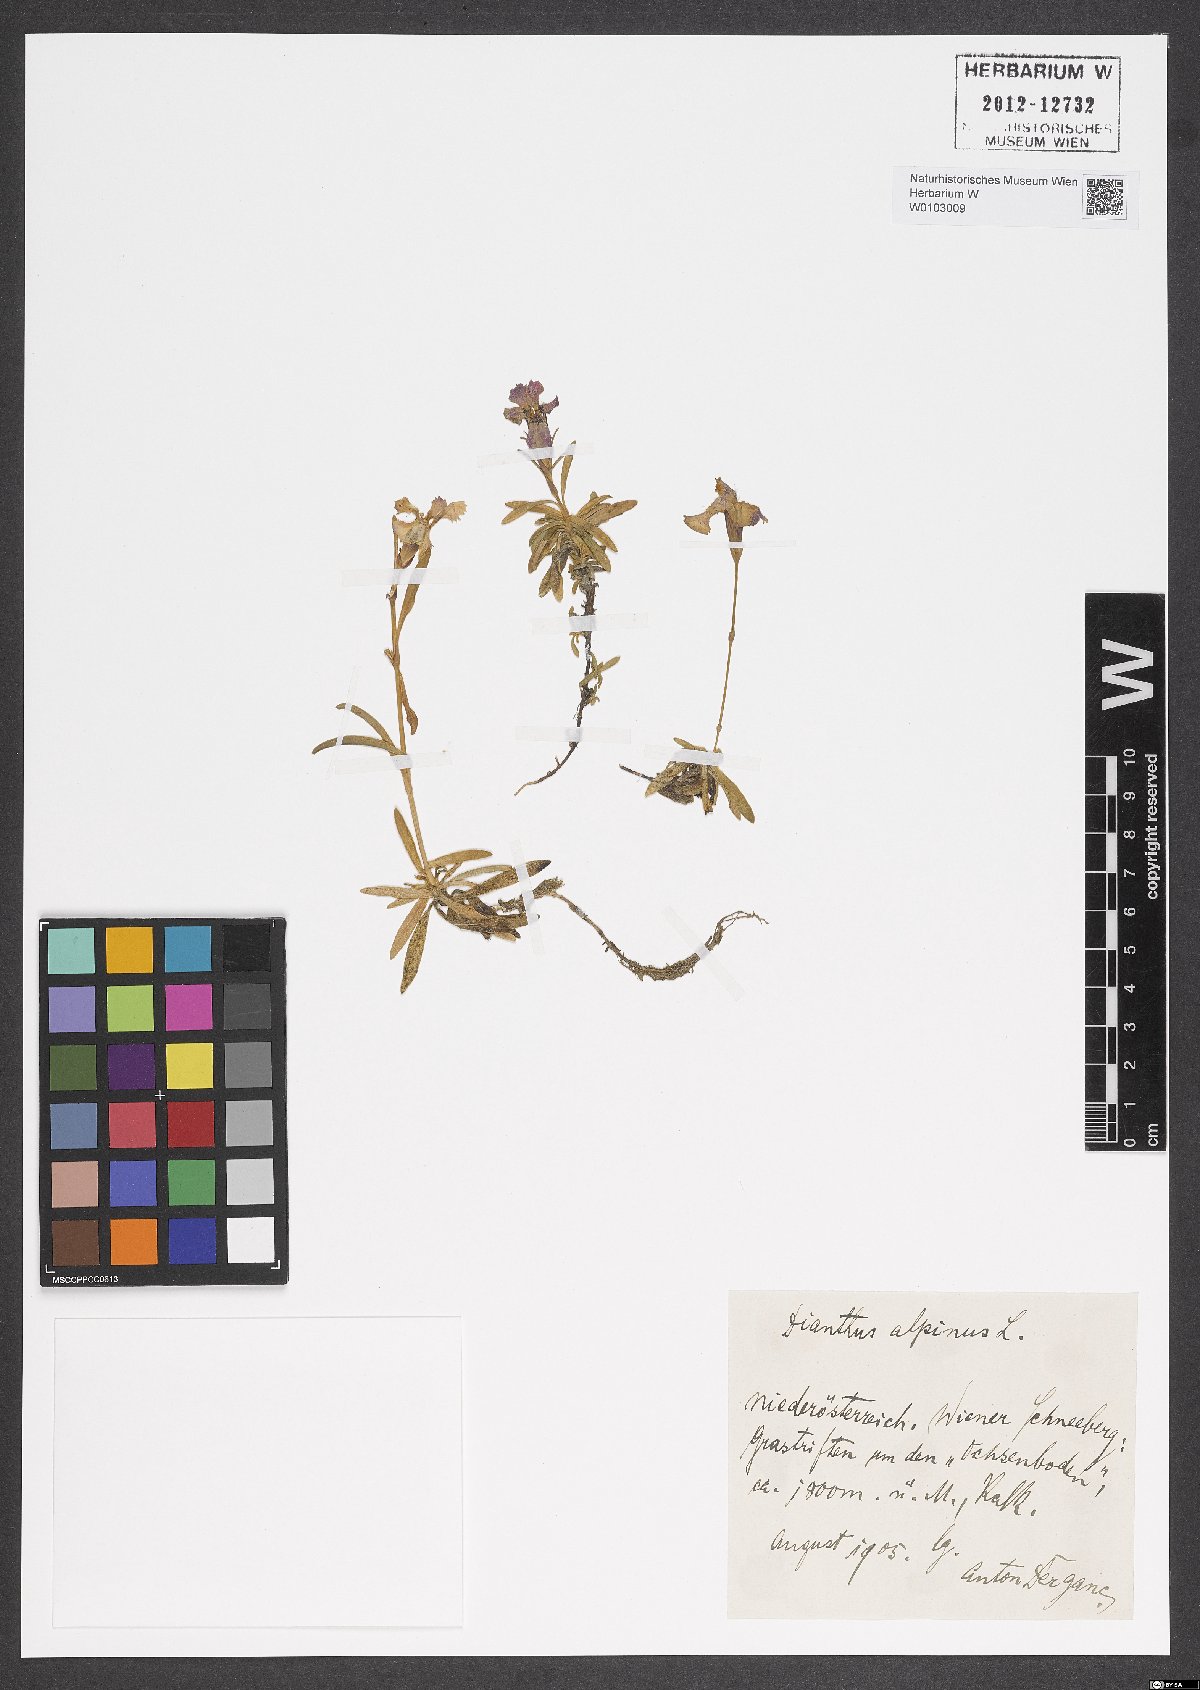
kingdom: Plantae
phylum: Tracheophyta
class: Magnoliopsida
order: Caryophyllales
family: Caryophyllaceae
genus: Dianthus
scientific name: Dianthus alpinus
